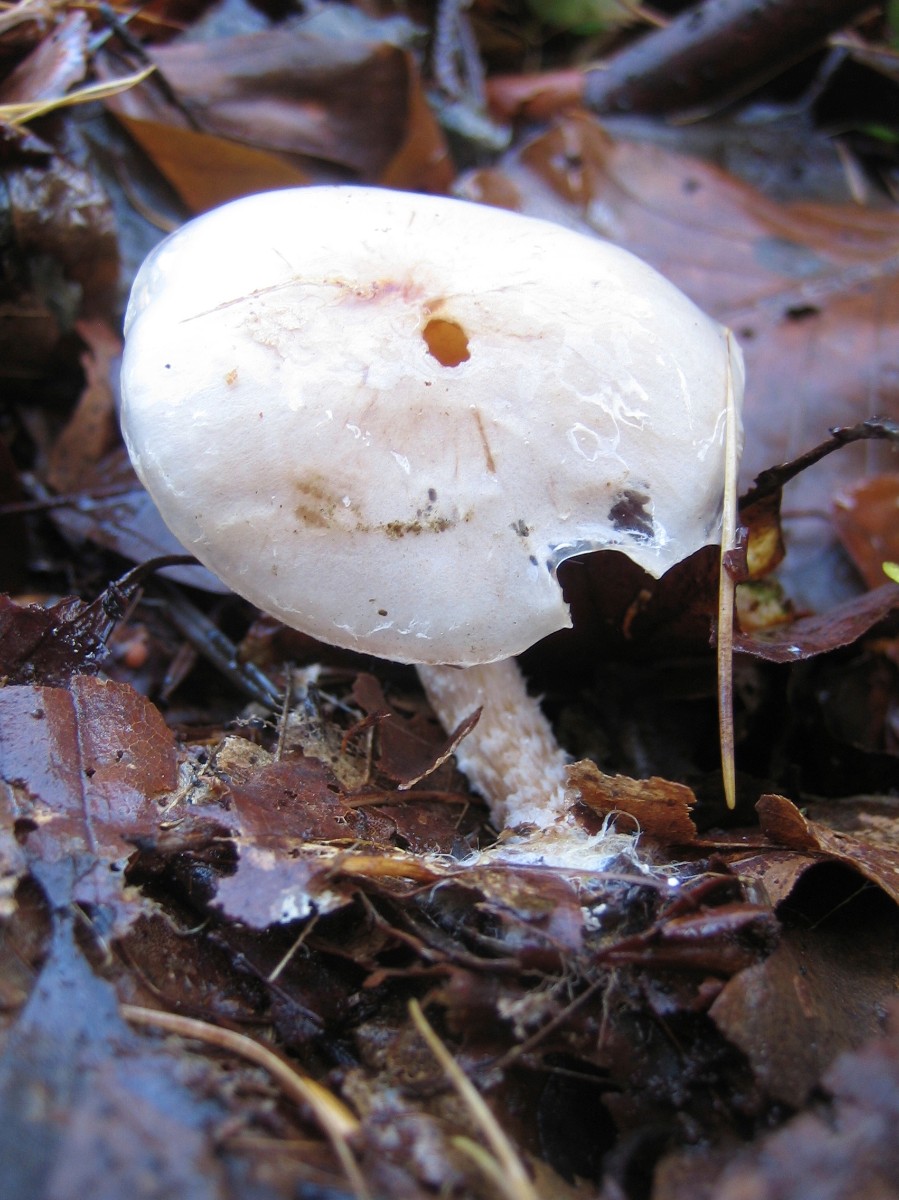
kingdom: Fungi
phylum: Basidiomycota
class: Agaricomycetes
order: Agaricales
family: Hygrophoraceae
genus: Hygrophorus
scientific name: Hygrophorus eburneus
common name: elfenbens-sneglehat
